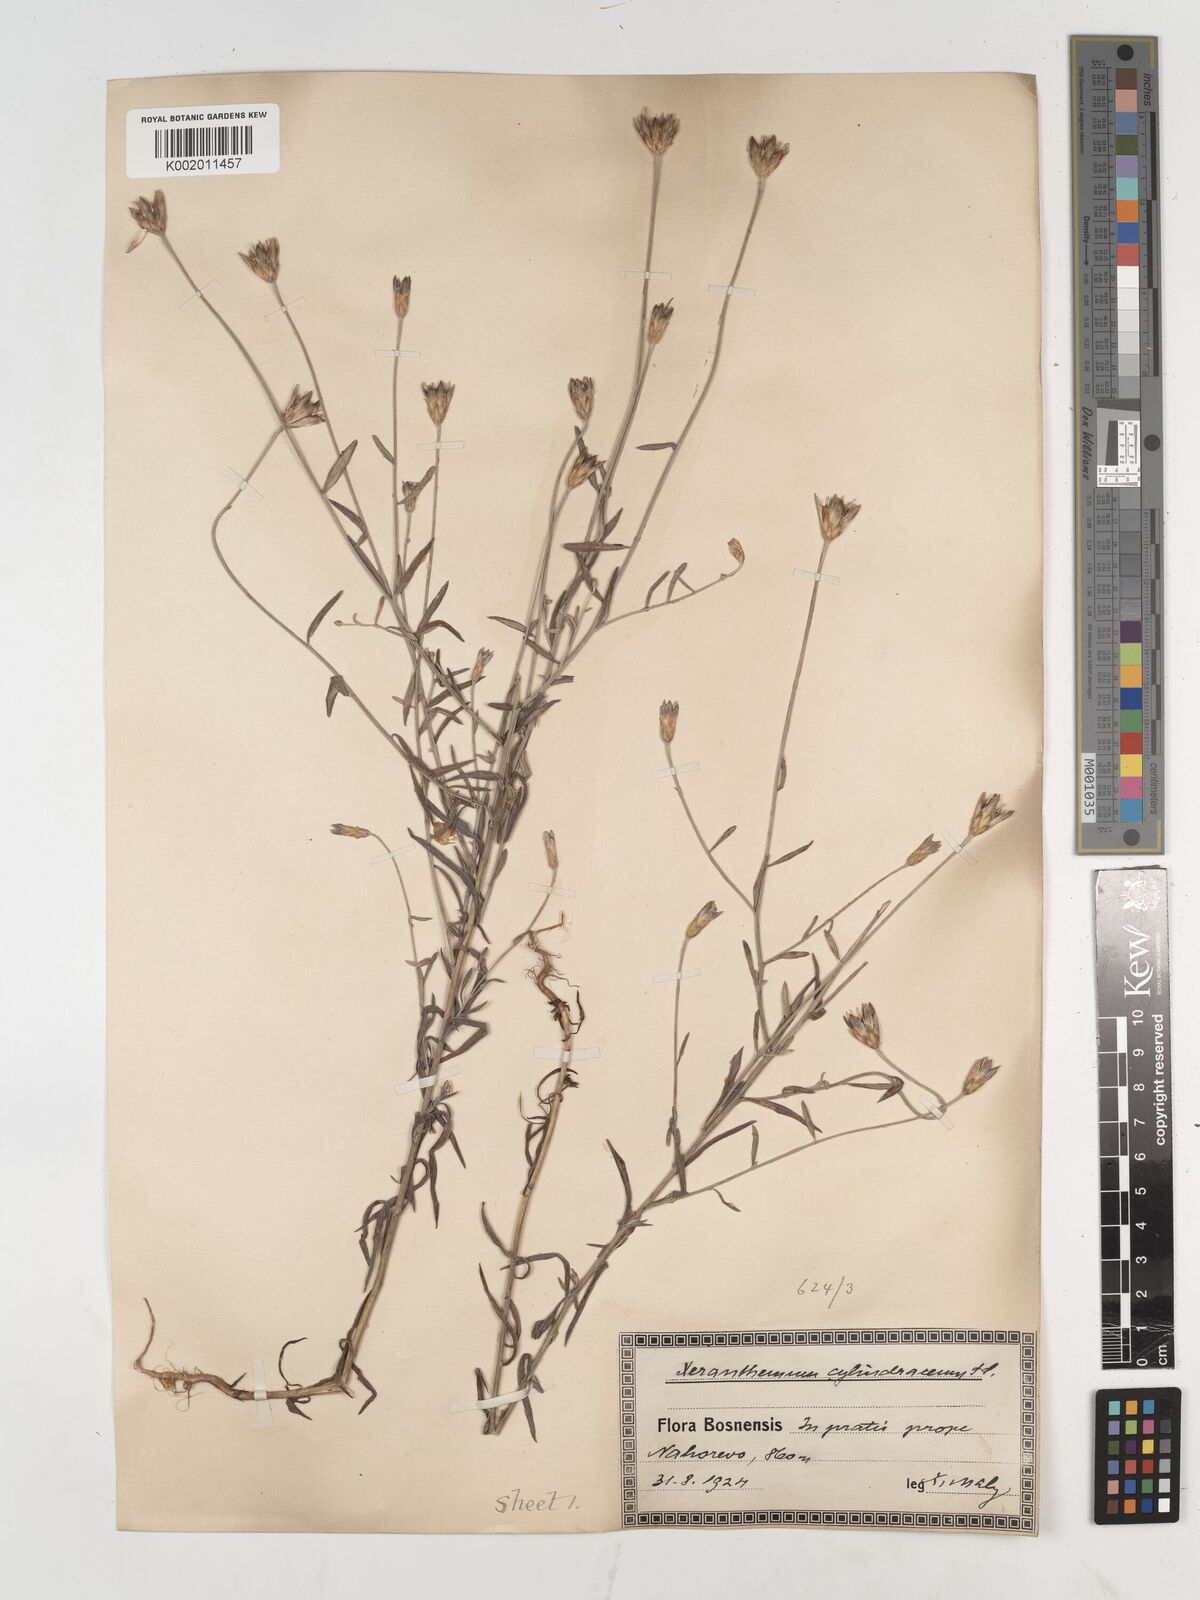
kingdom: Plantae
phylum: Tracheophyta
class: Magnoliopsida
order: Asterales
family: Asteraceae
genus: Xeranthemum
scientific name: Xeranthemum cylindraceum
